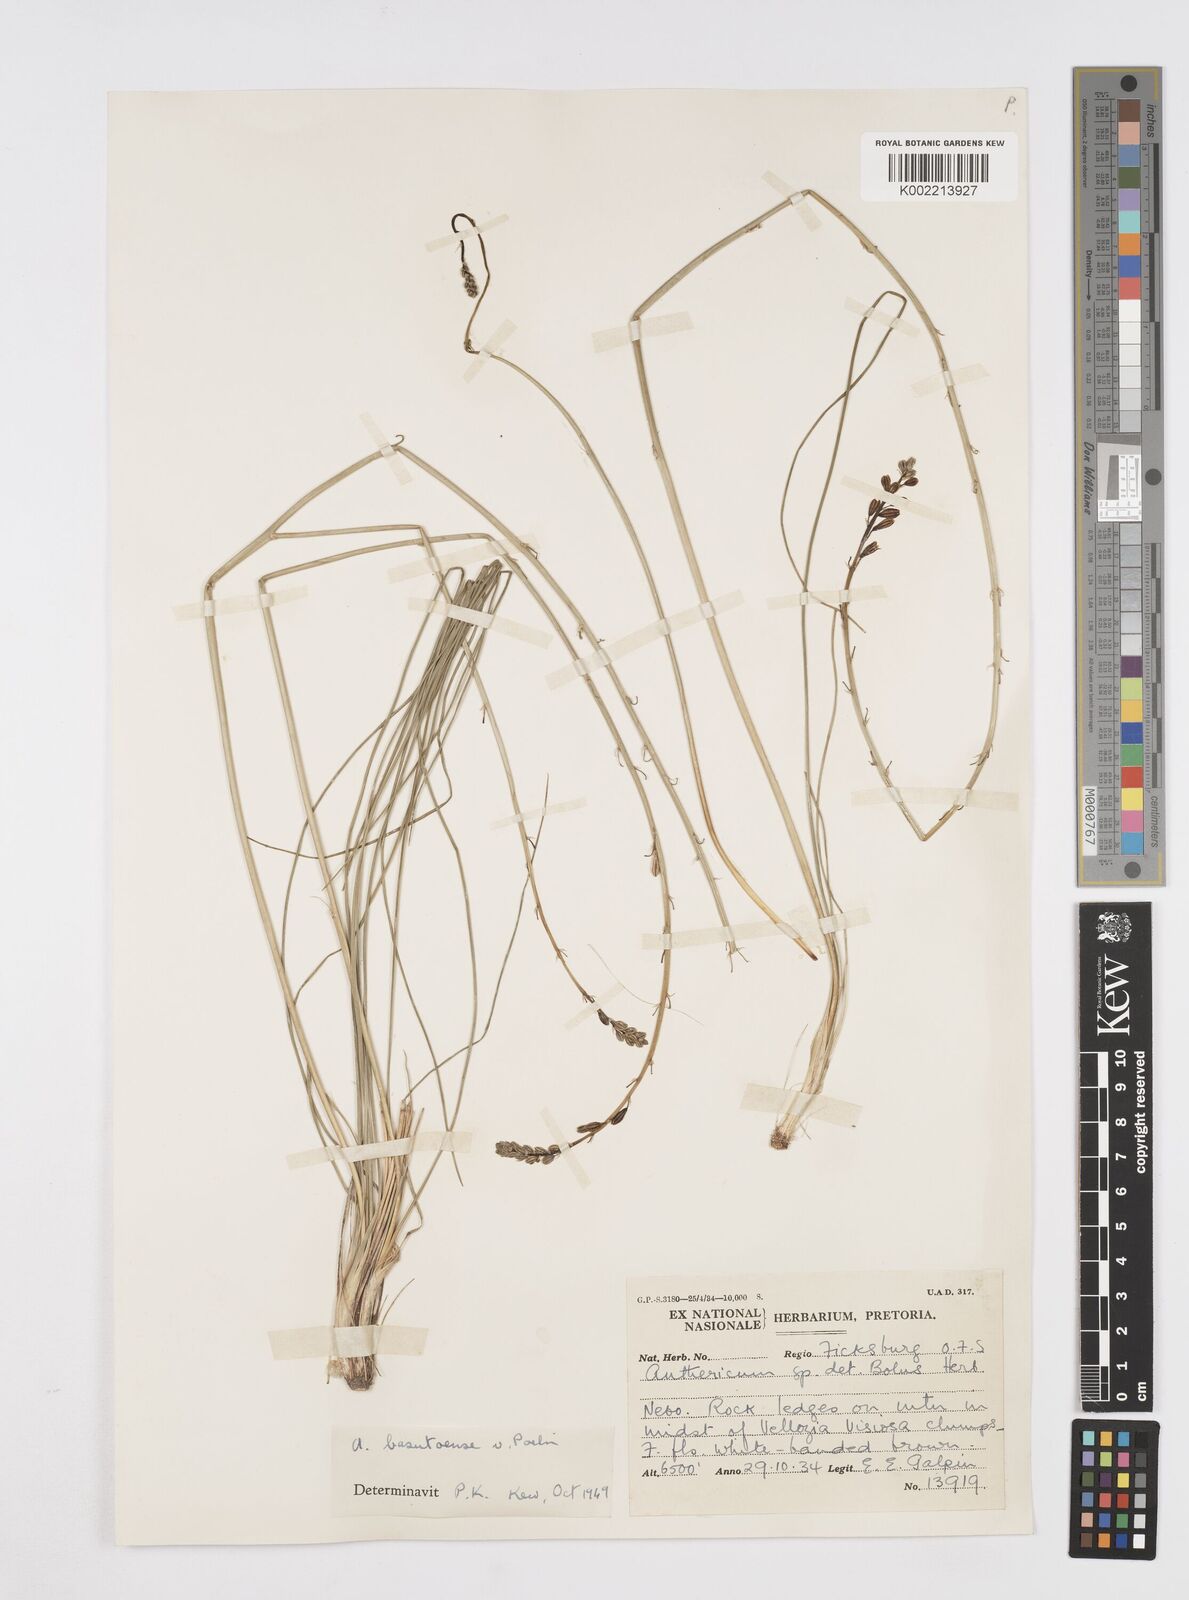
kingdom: Plantae
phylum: Tracheophyta
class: Liliopsida
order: Asparagales
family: Asphodelaceae
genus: Trachyandra
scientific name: Trachyandra asperata
